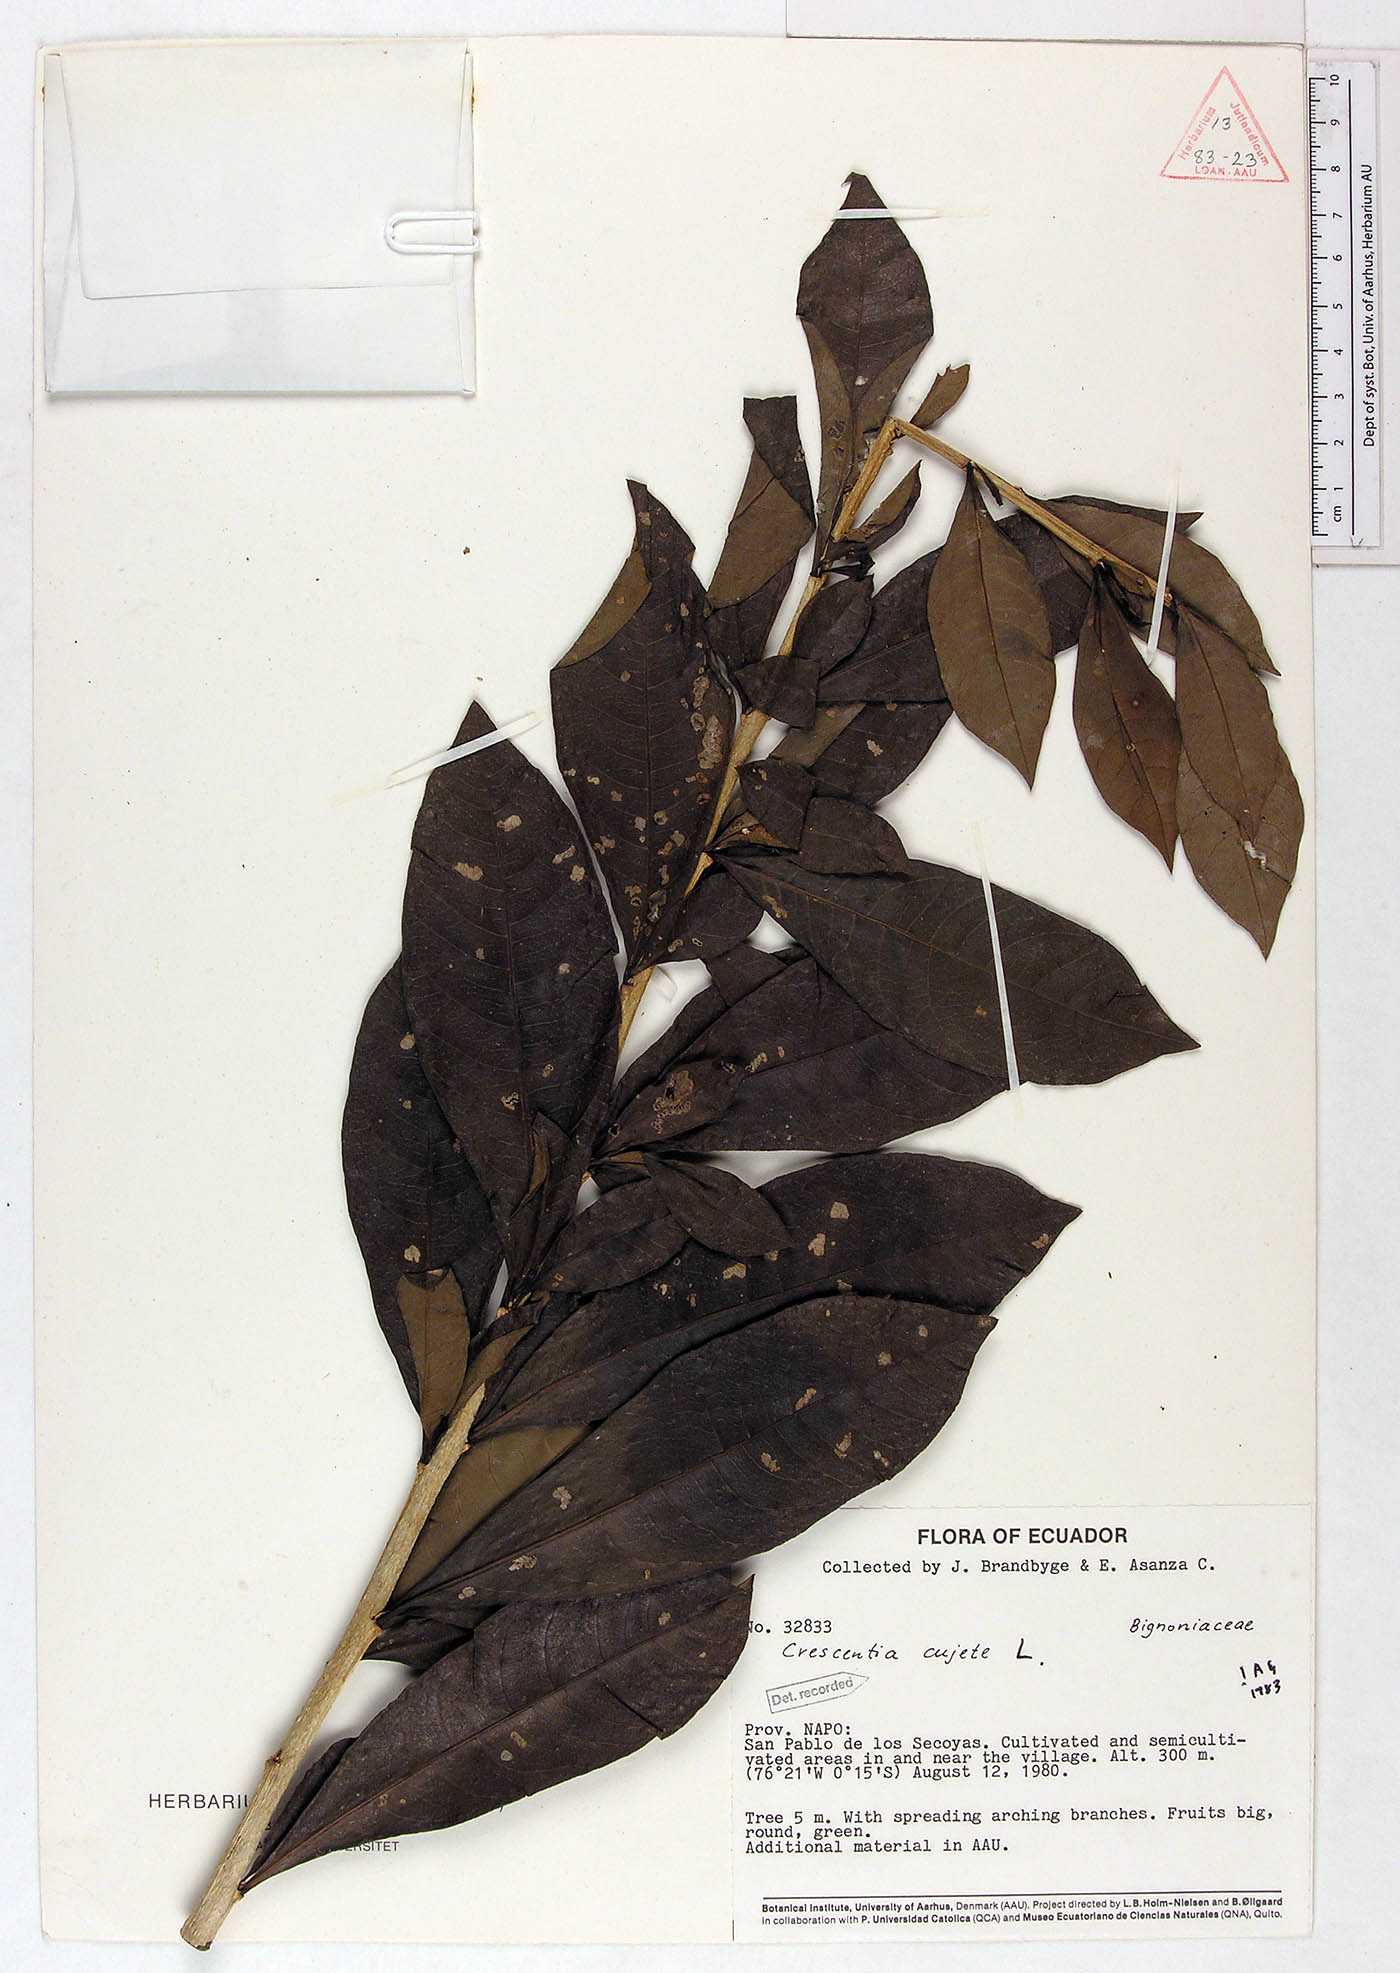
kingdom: Plantae
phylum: Tracheophyta
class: Magnoliopsida
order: Lamiales
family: Bignoniaceae
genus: Crescentia
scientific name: Crescentia cujete
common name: Calabash
